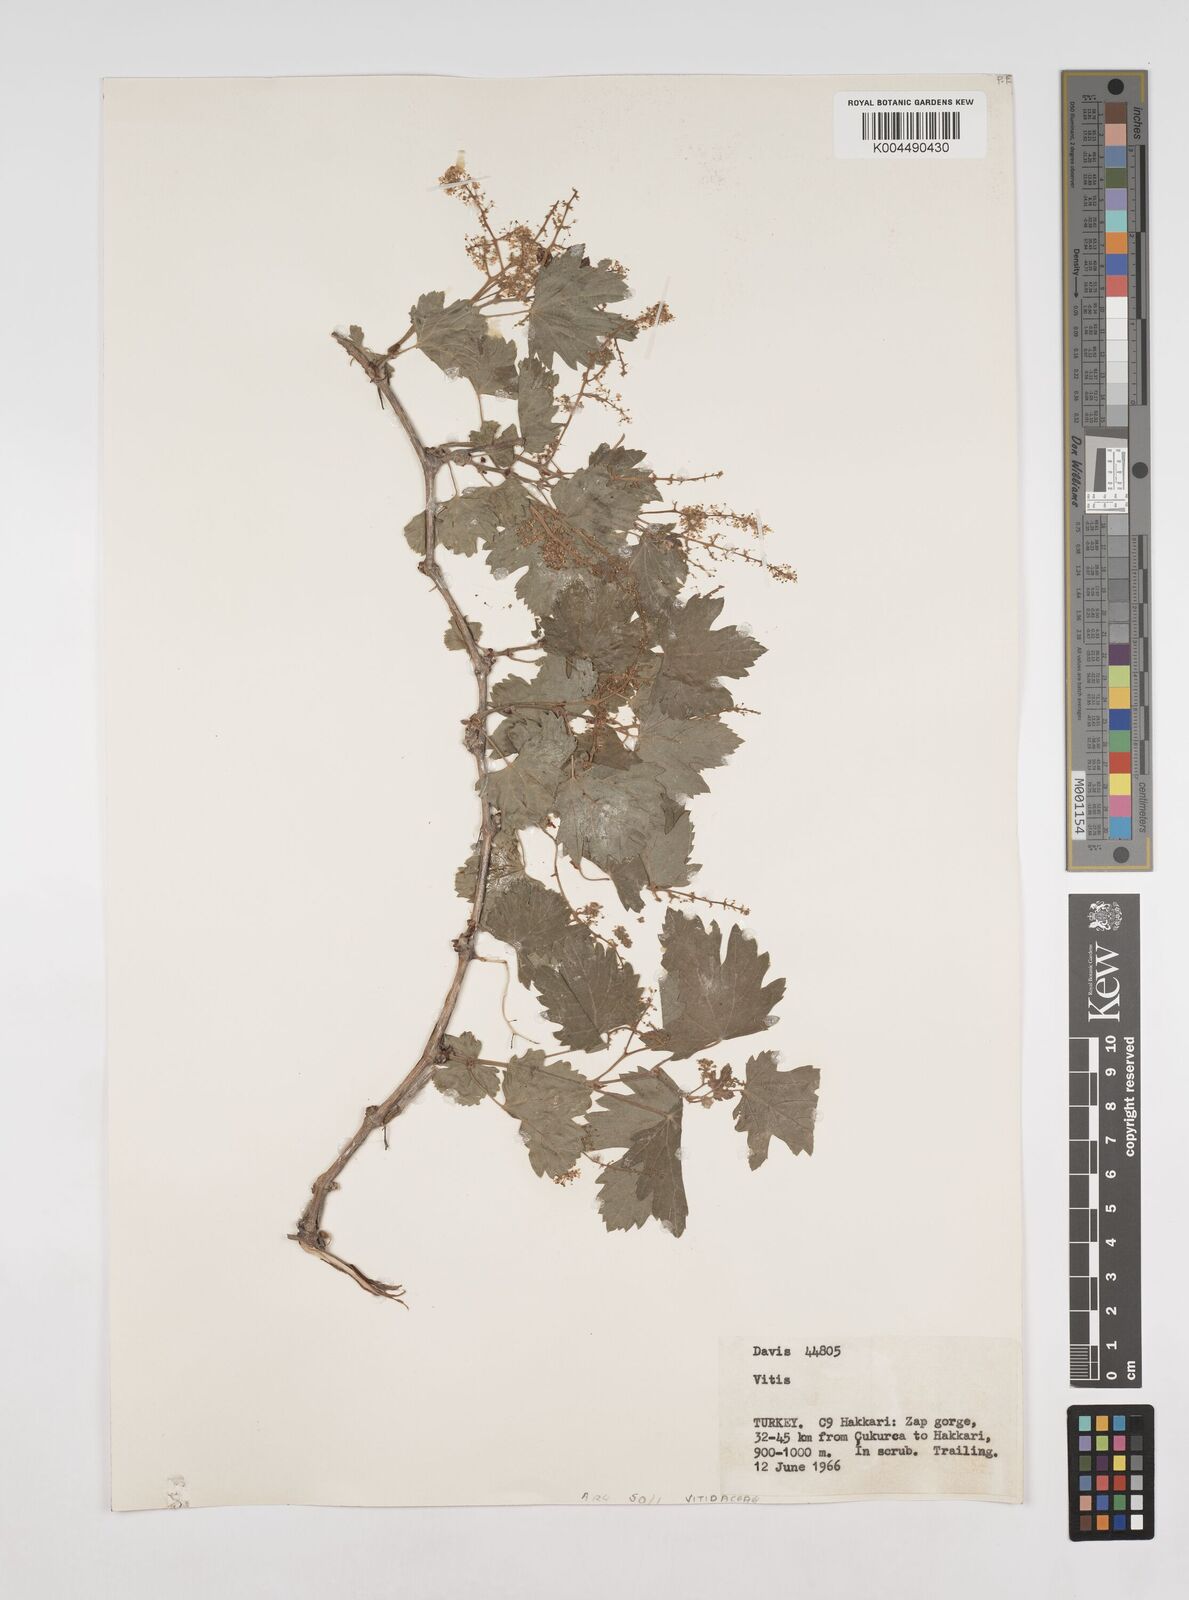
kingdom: Plantae
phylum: Tracheophyta
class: Magnoliopsida
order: Vitales
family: Vitaceae
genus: Vitis
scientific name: Vitis gmelinii
